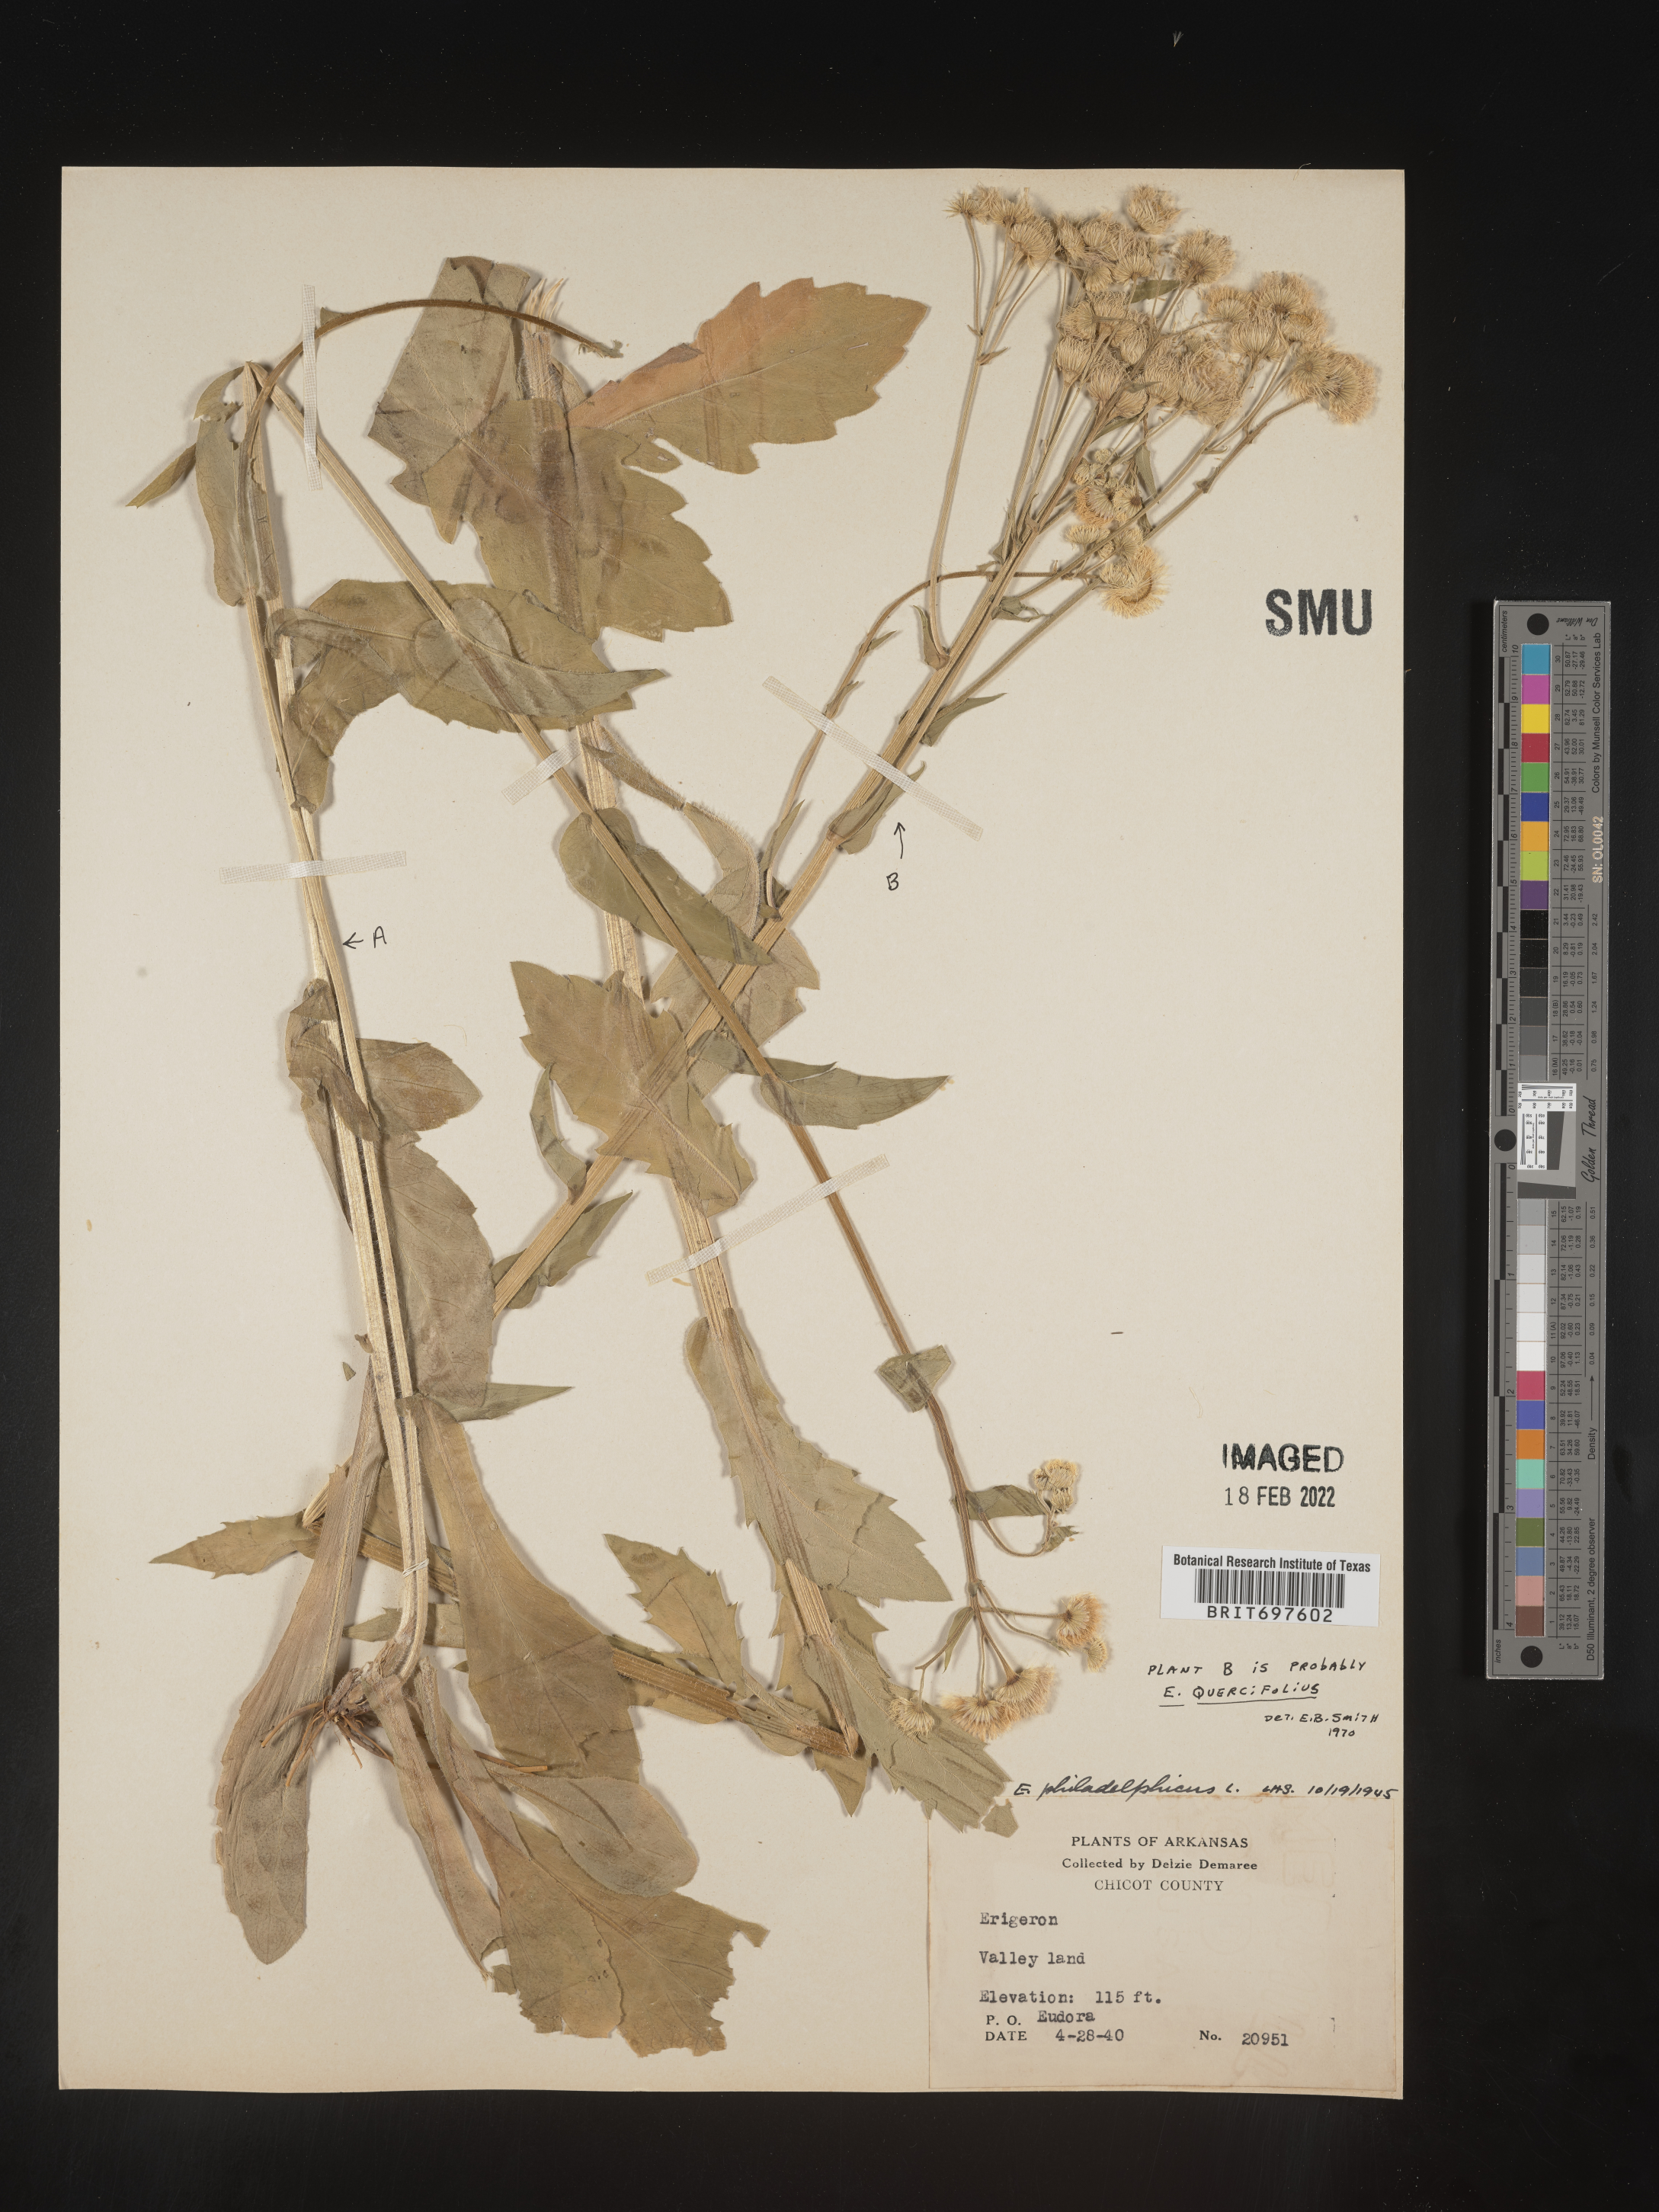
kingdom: Plantae
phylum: Tracheophyta
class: Magnoliopsida
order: Asterales
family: Asteraceae
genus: Erigeron
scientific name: Erigeron philadelphicus
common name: Robin's-plantain
